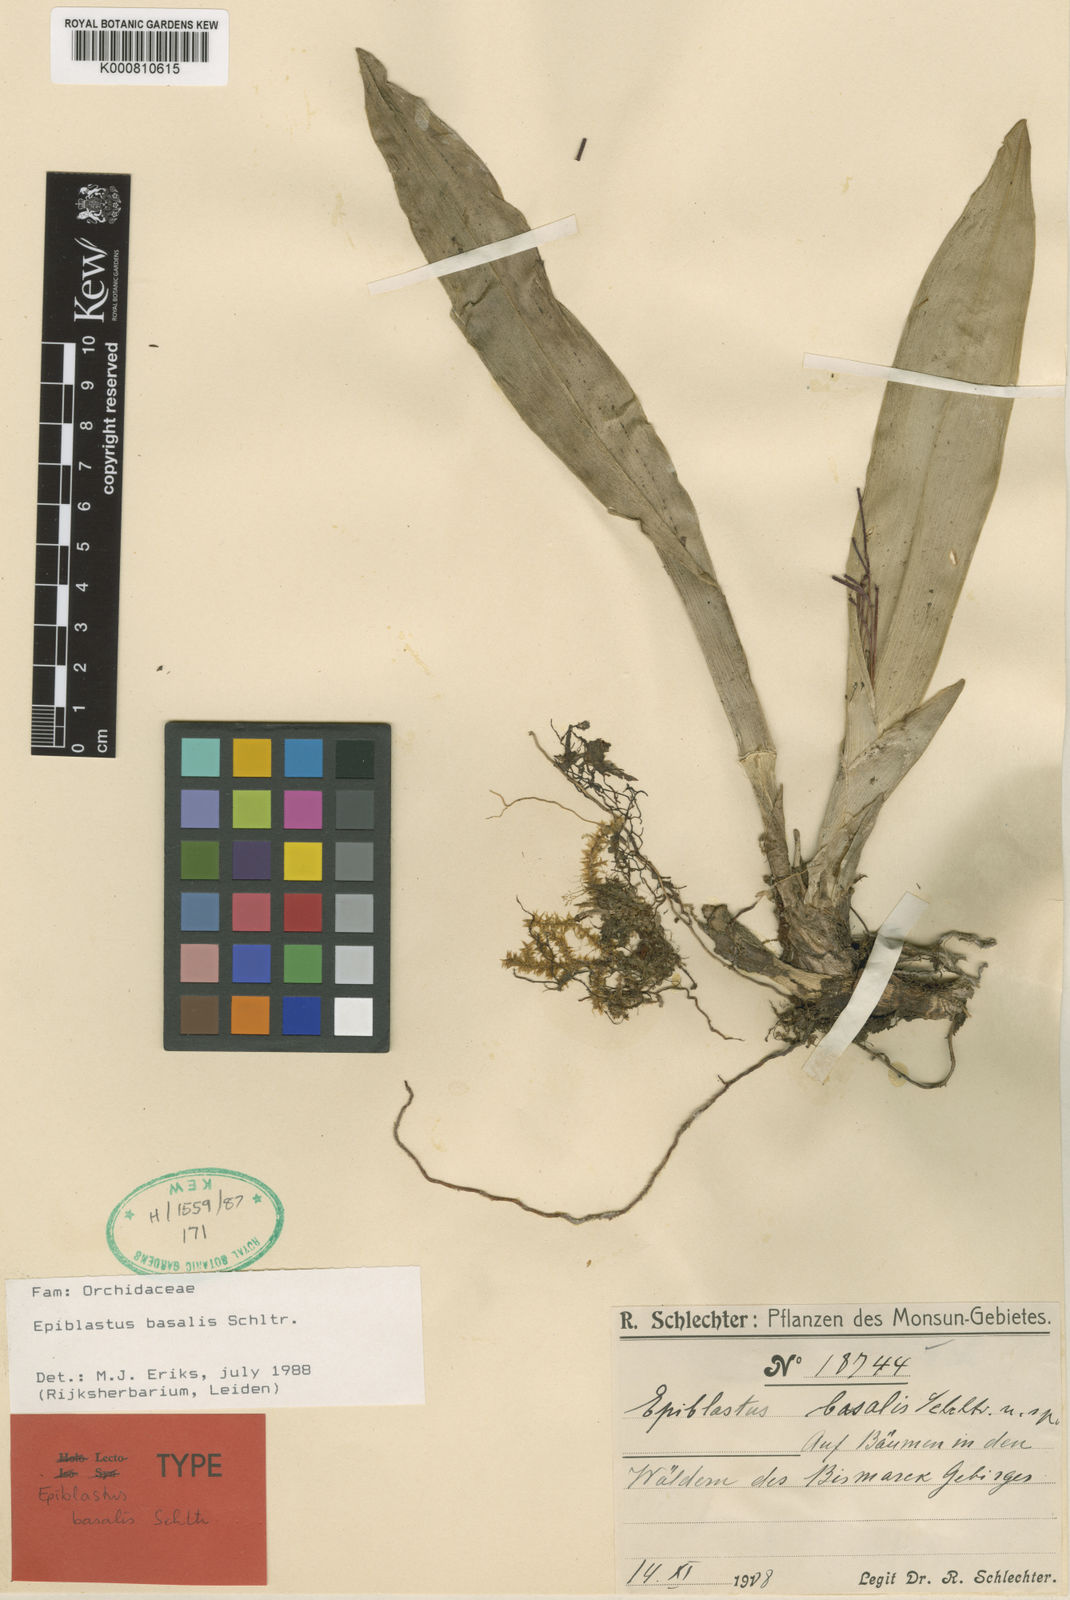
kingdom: Plantae
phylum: Tracheophyta
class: Liliopsida
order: Asparagales
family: Orchidaceae
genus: Epiblastus
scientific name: Epiblastus basalis
